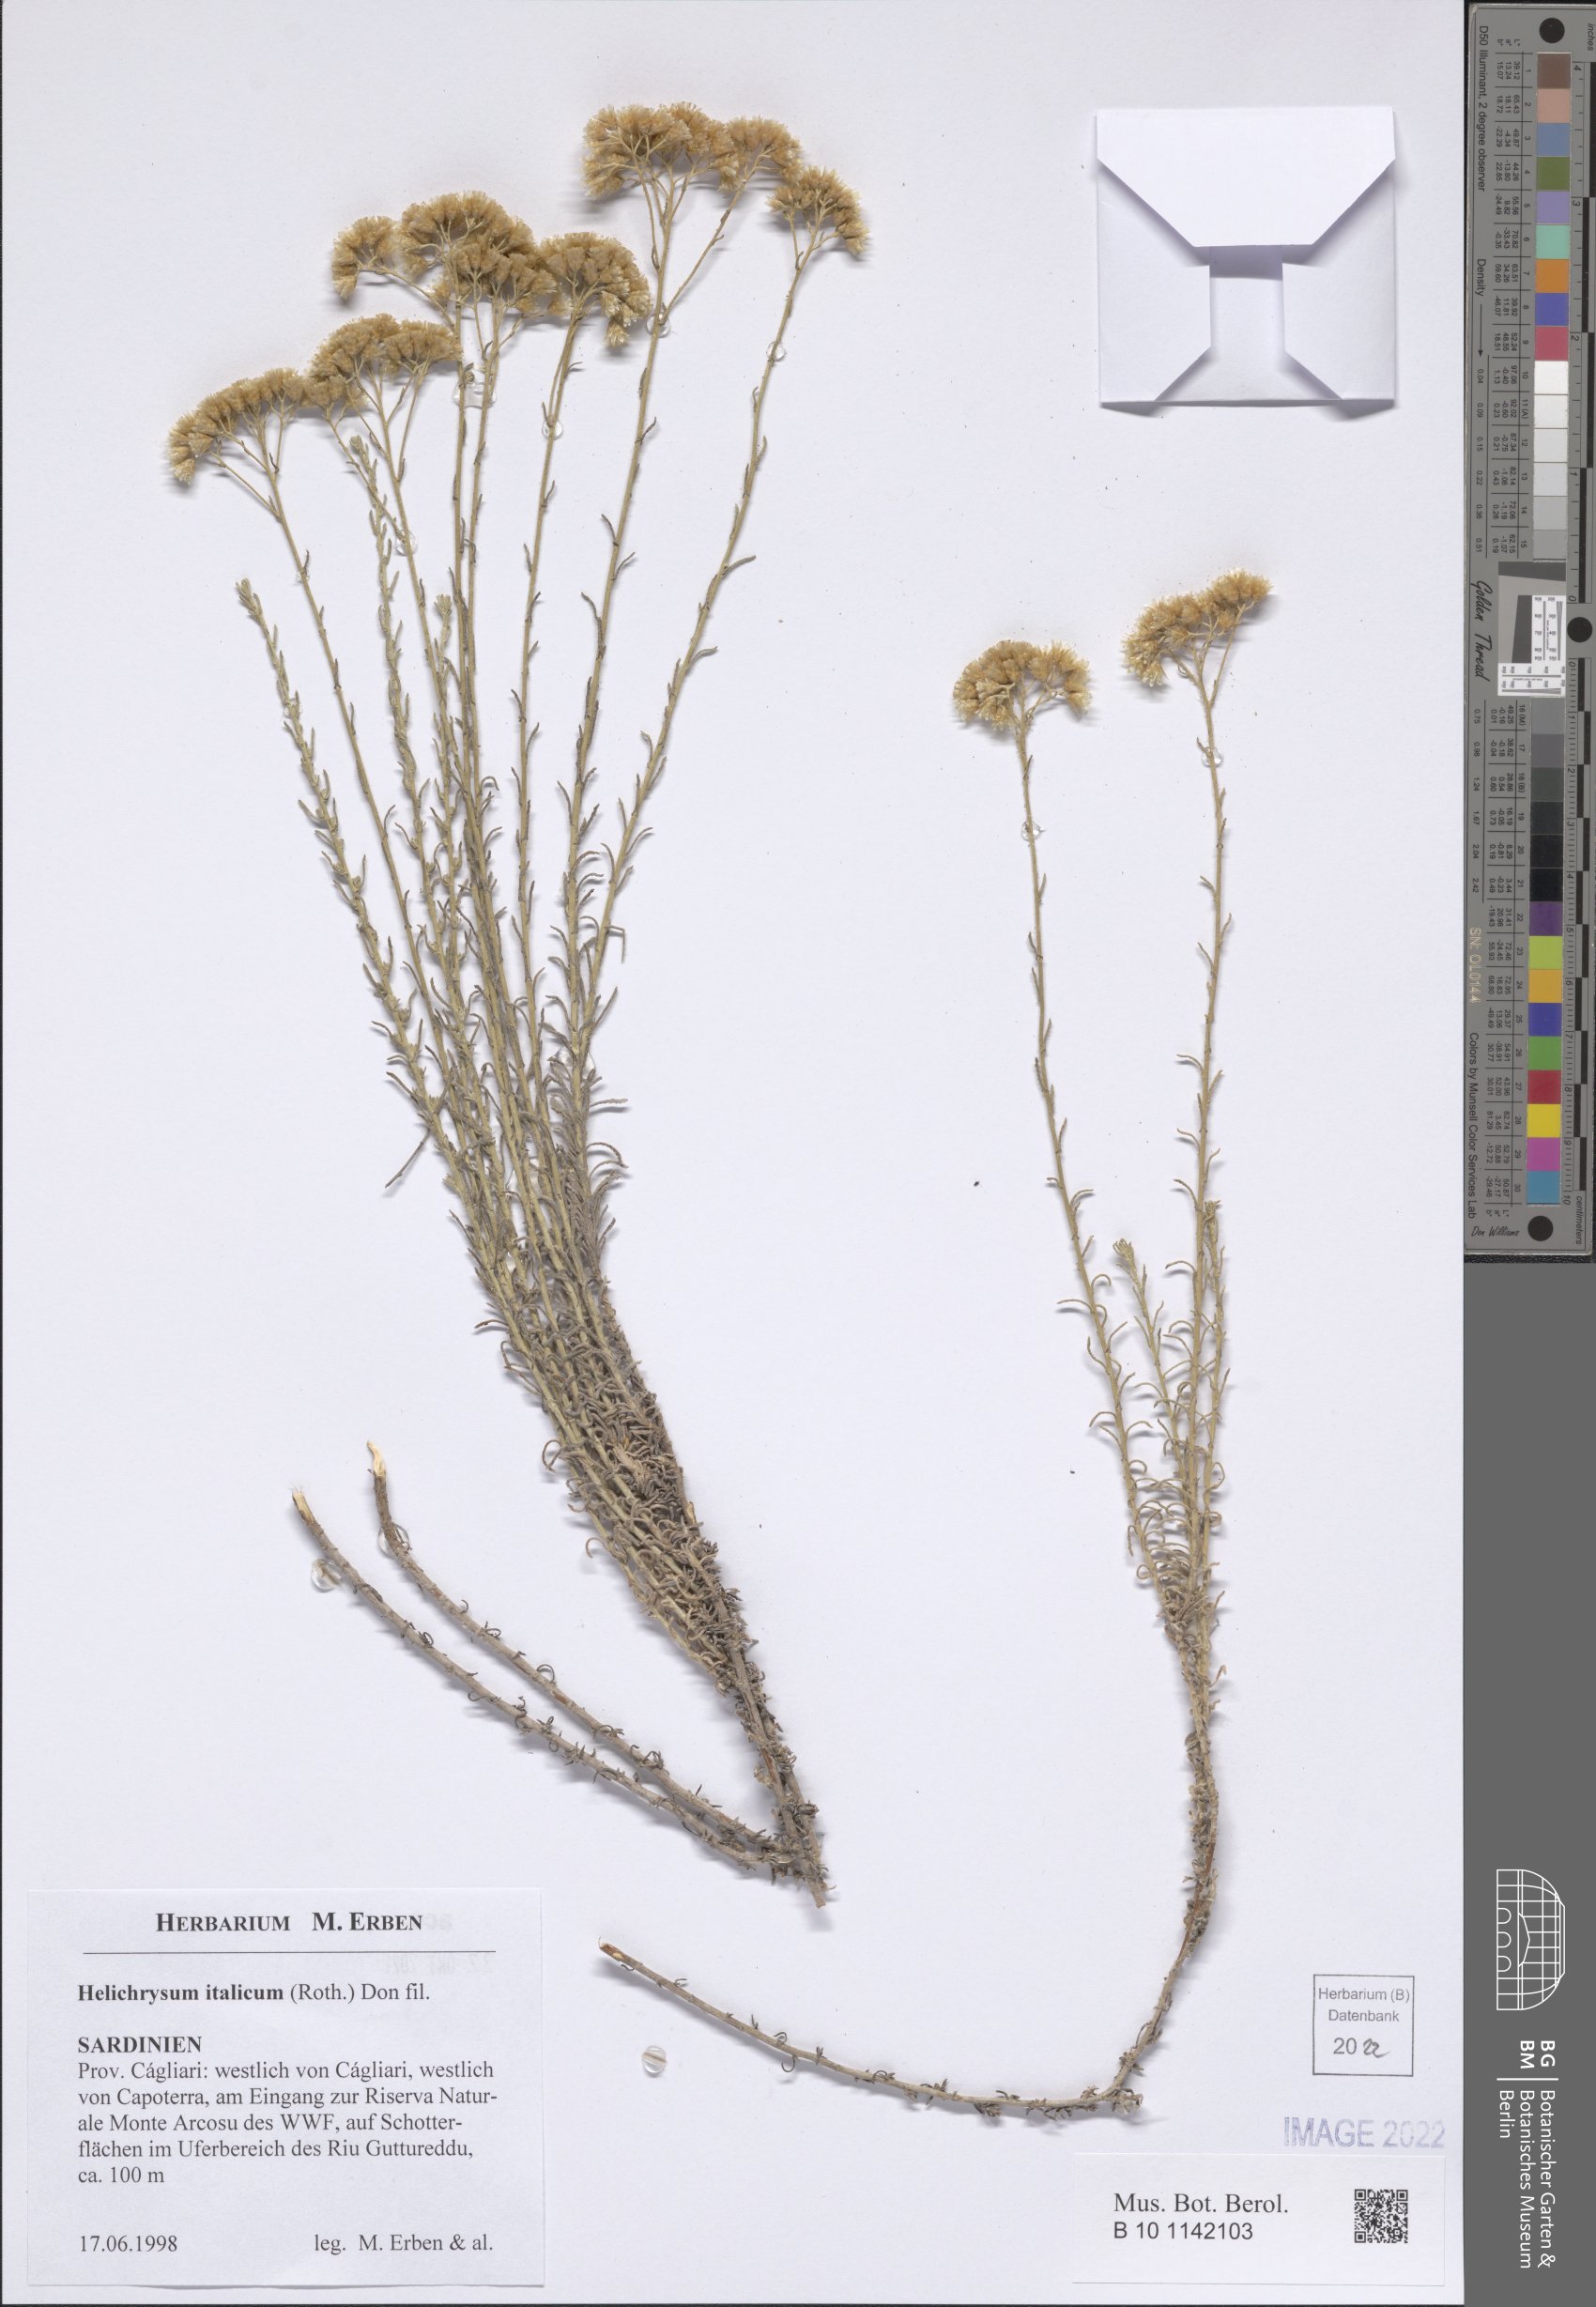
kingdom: Plantae
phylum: Tracheophyta
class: Magnoliopsida
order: Asterales
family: Asteraceae
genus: Helichrysum
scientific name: Helichrysum italicum
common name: Curryplant
